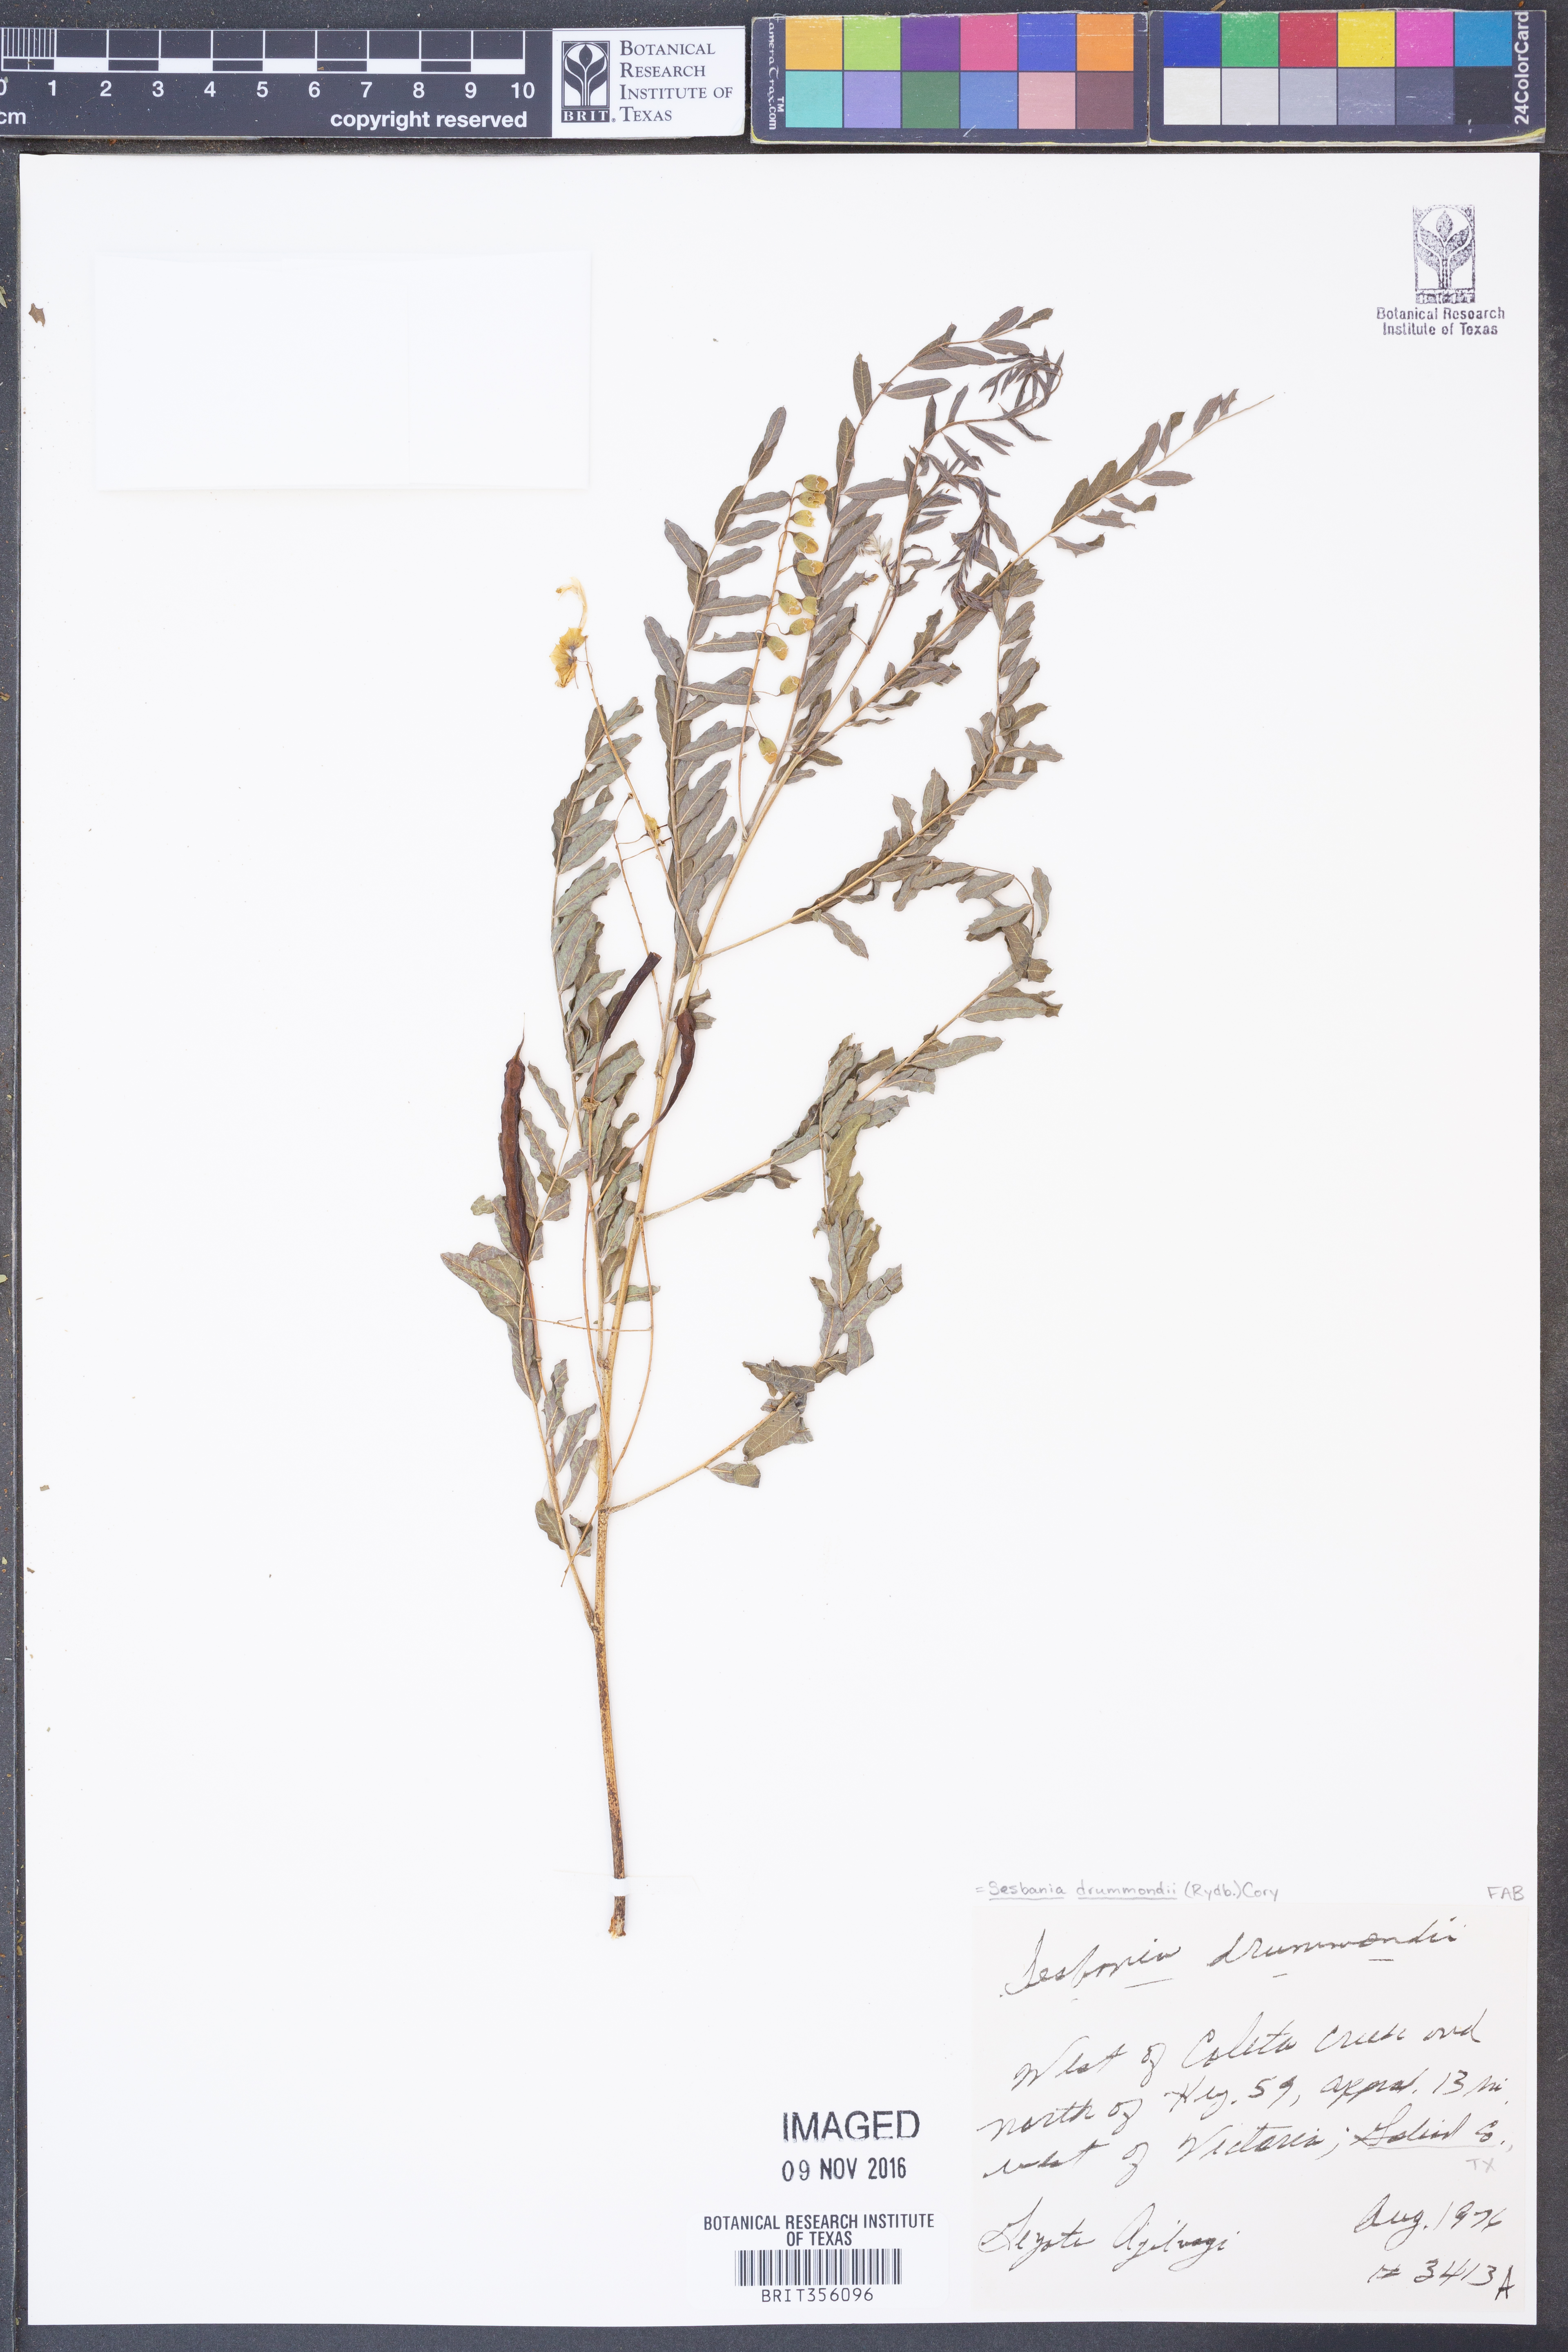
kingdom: Plantae
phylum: Tracheophyta
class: Magnoliopsida
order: Fabales
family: Fabaceae
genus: Sesbania
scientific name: Sesbania drummondii
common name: Poison-bean
